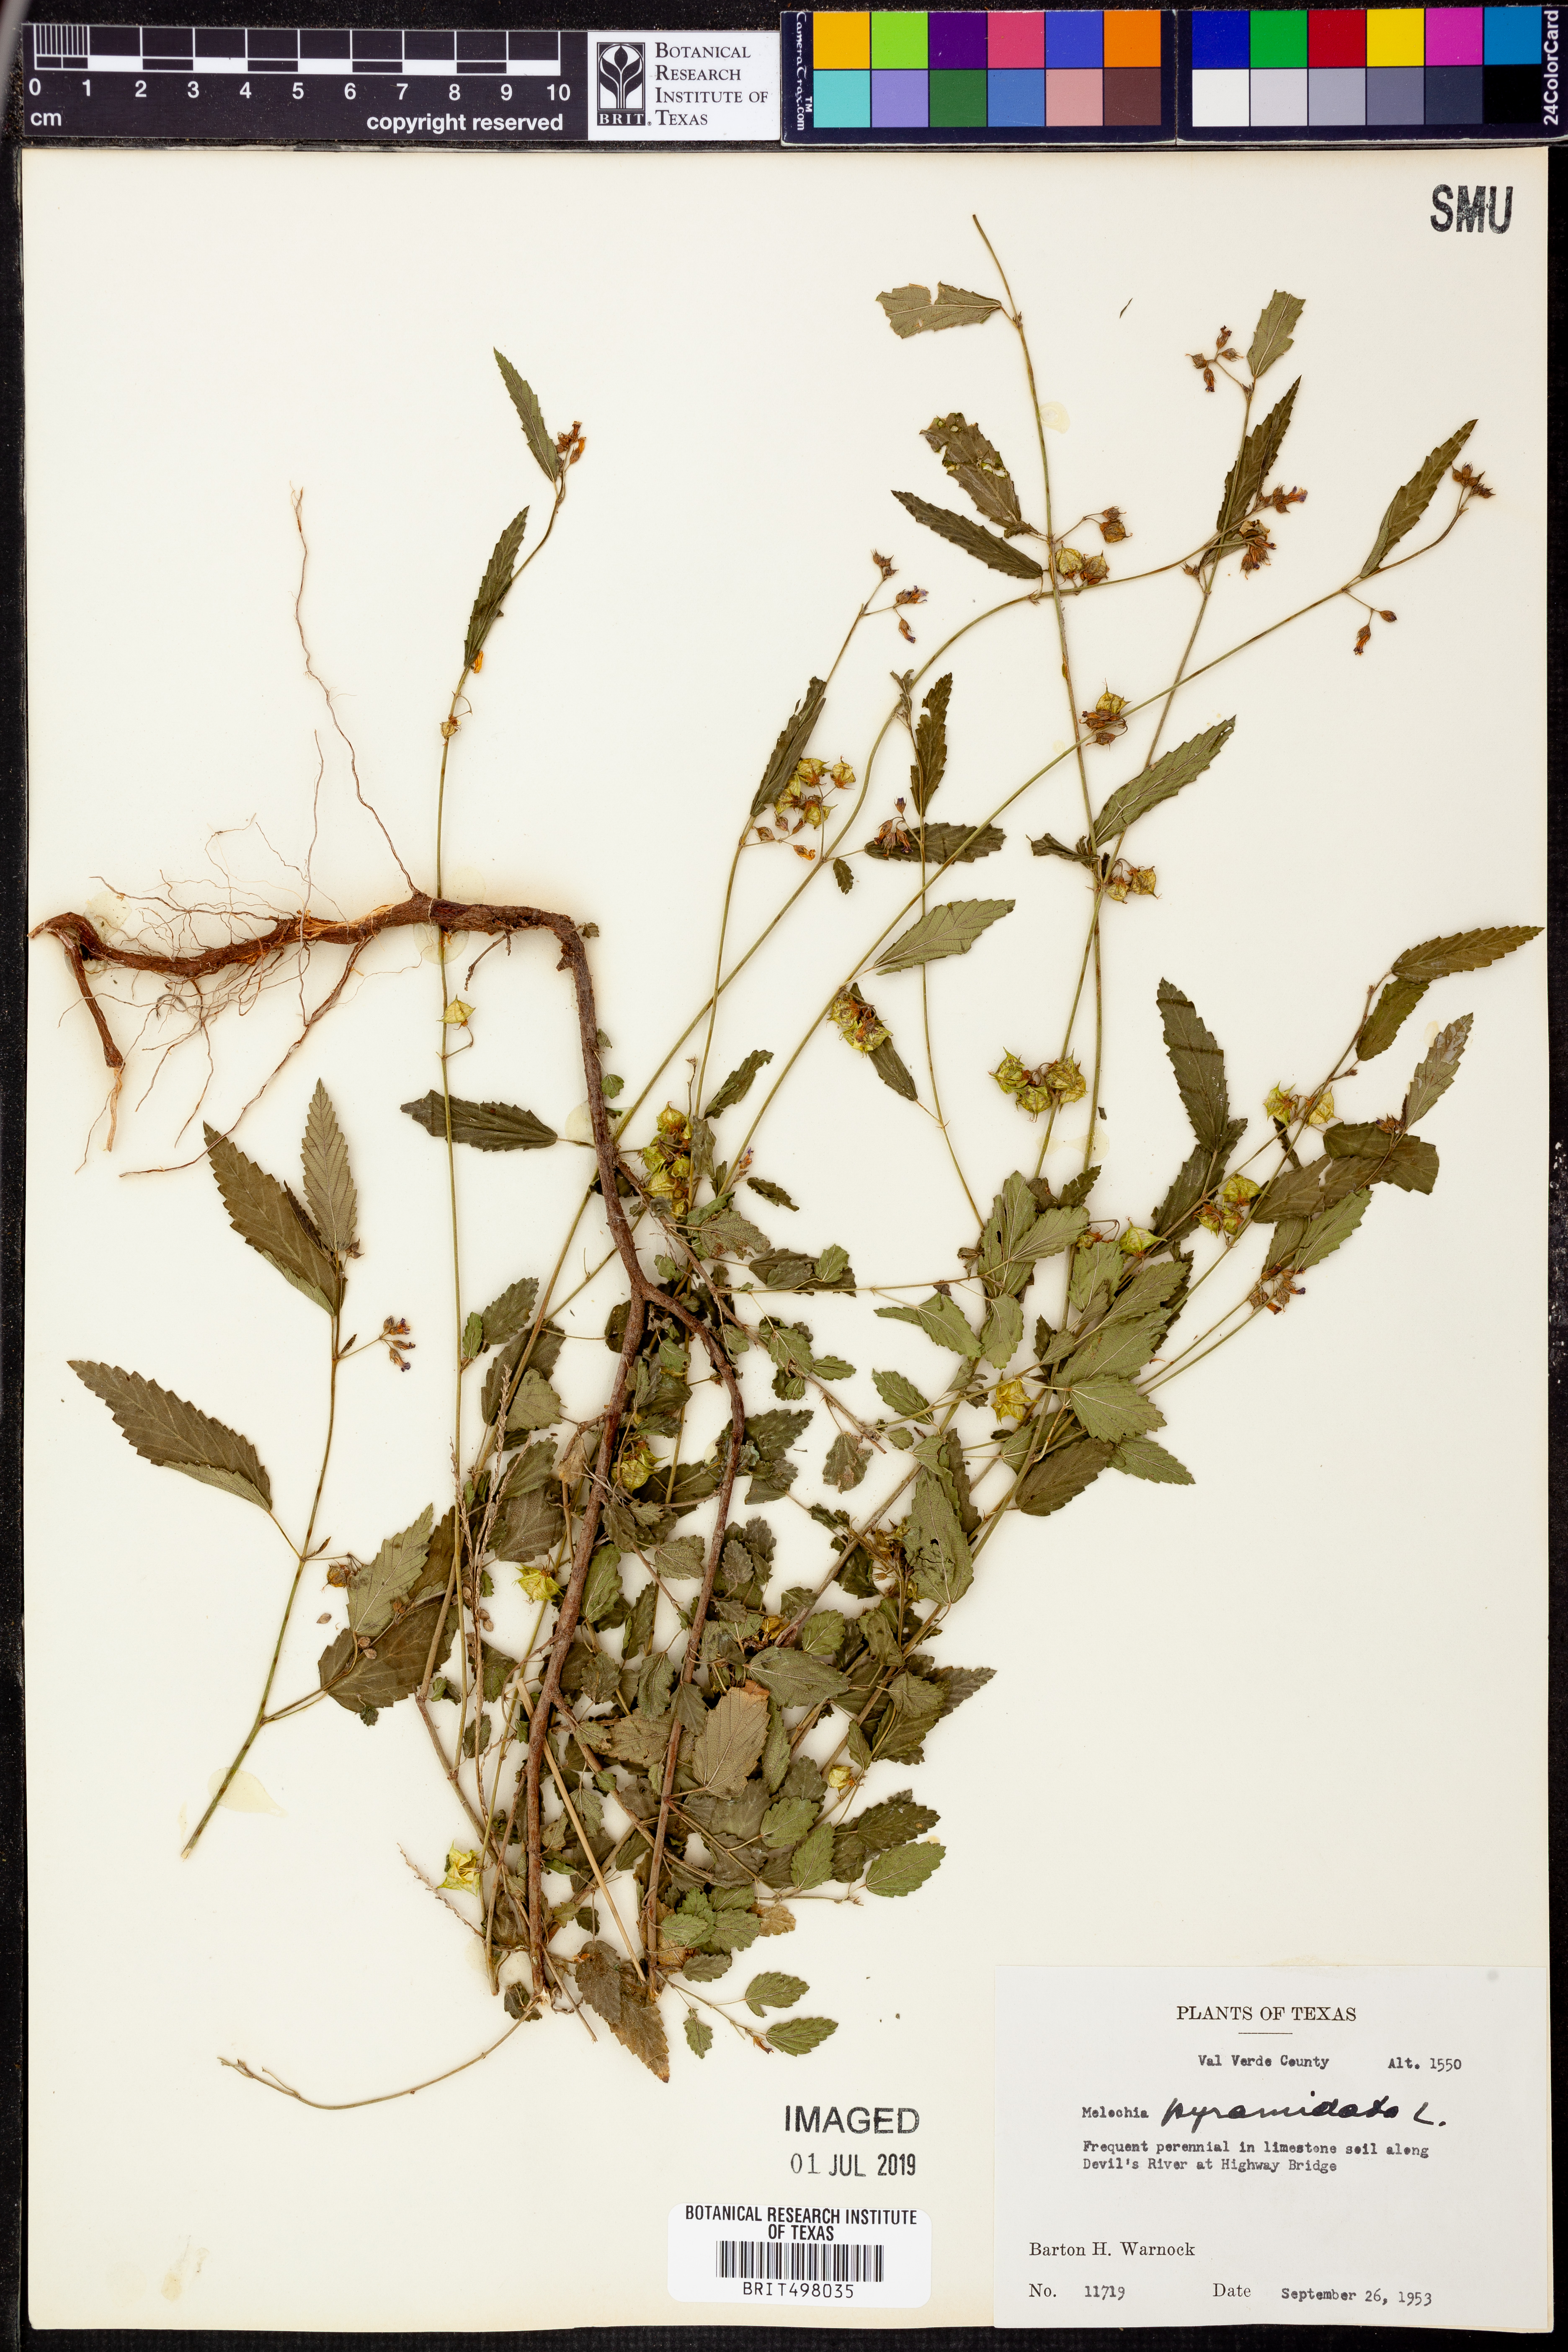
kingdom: Plantae
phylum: Tracheophyta
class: Magnoliopsida
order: Malvales
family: Malvaceae
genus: Melochia
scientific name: Melochia pyramidata
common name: Pyramidflower
